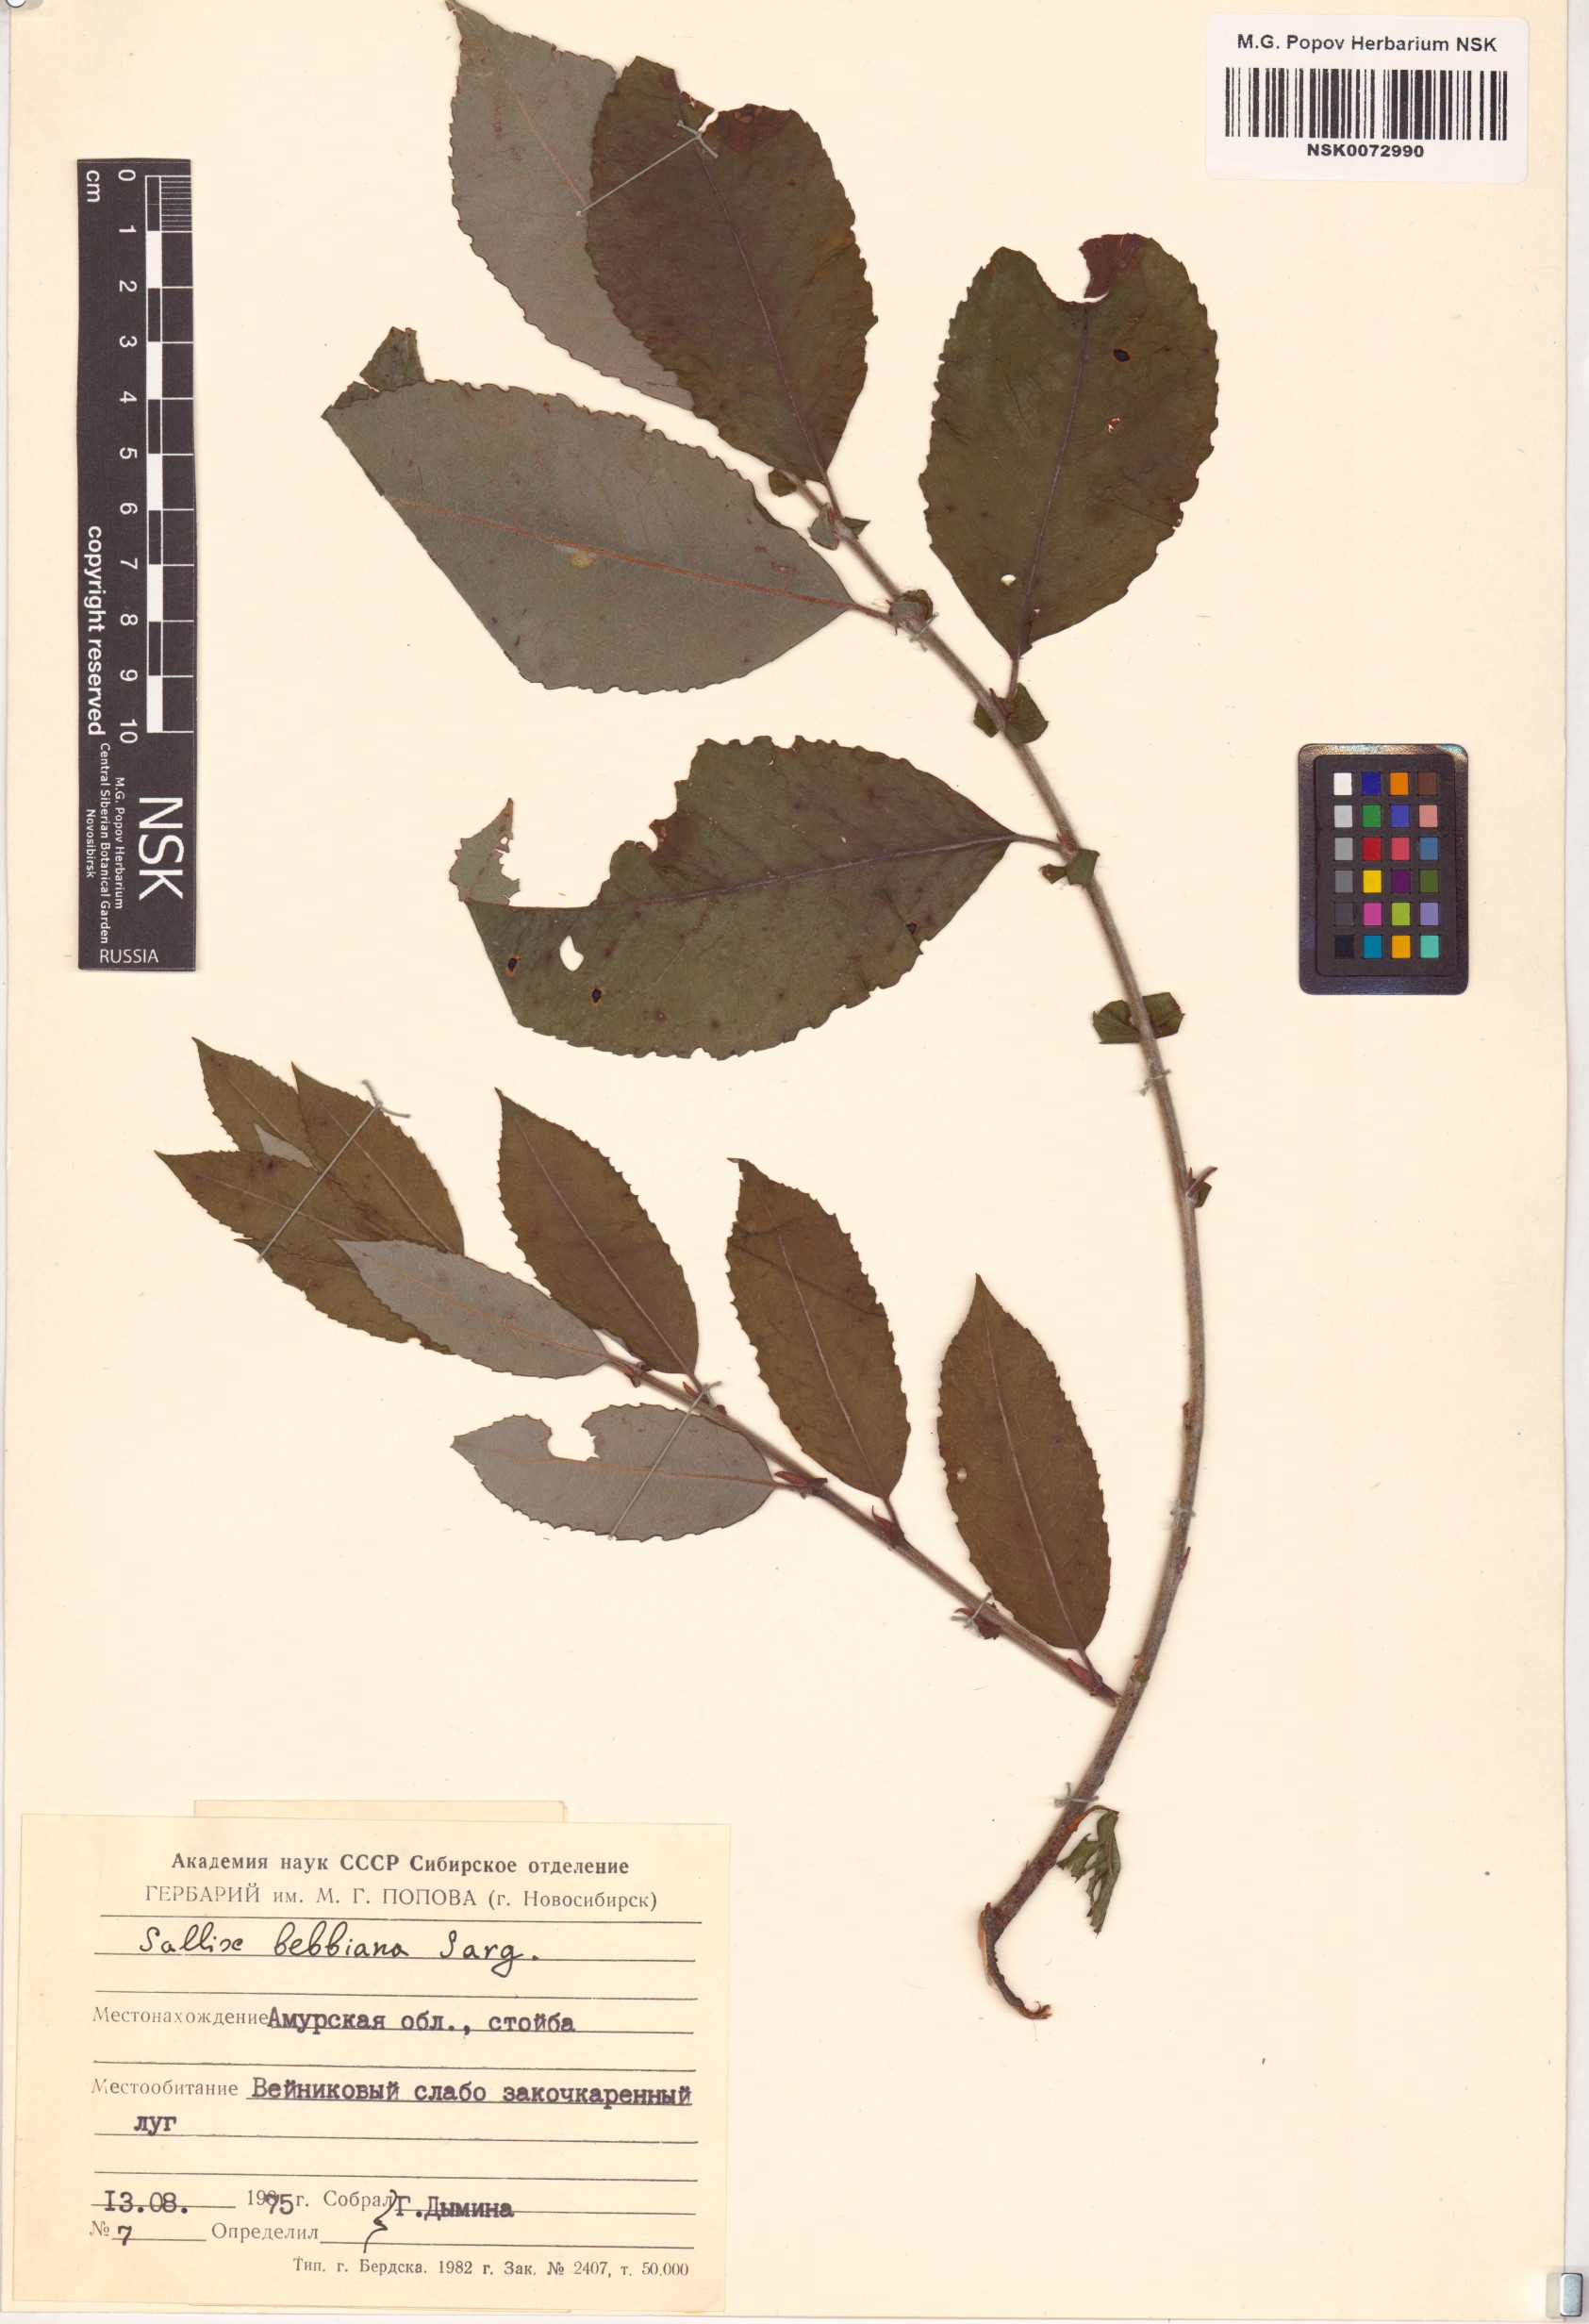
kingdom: Plantae
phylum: Tracheophyta
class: Magnoliopsida
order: Malpighiales
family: Salicaceae
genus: Salix
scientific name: Salix bebbiana
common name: Bebb's willow
